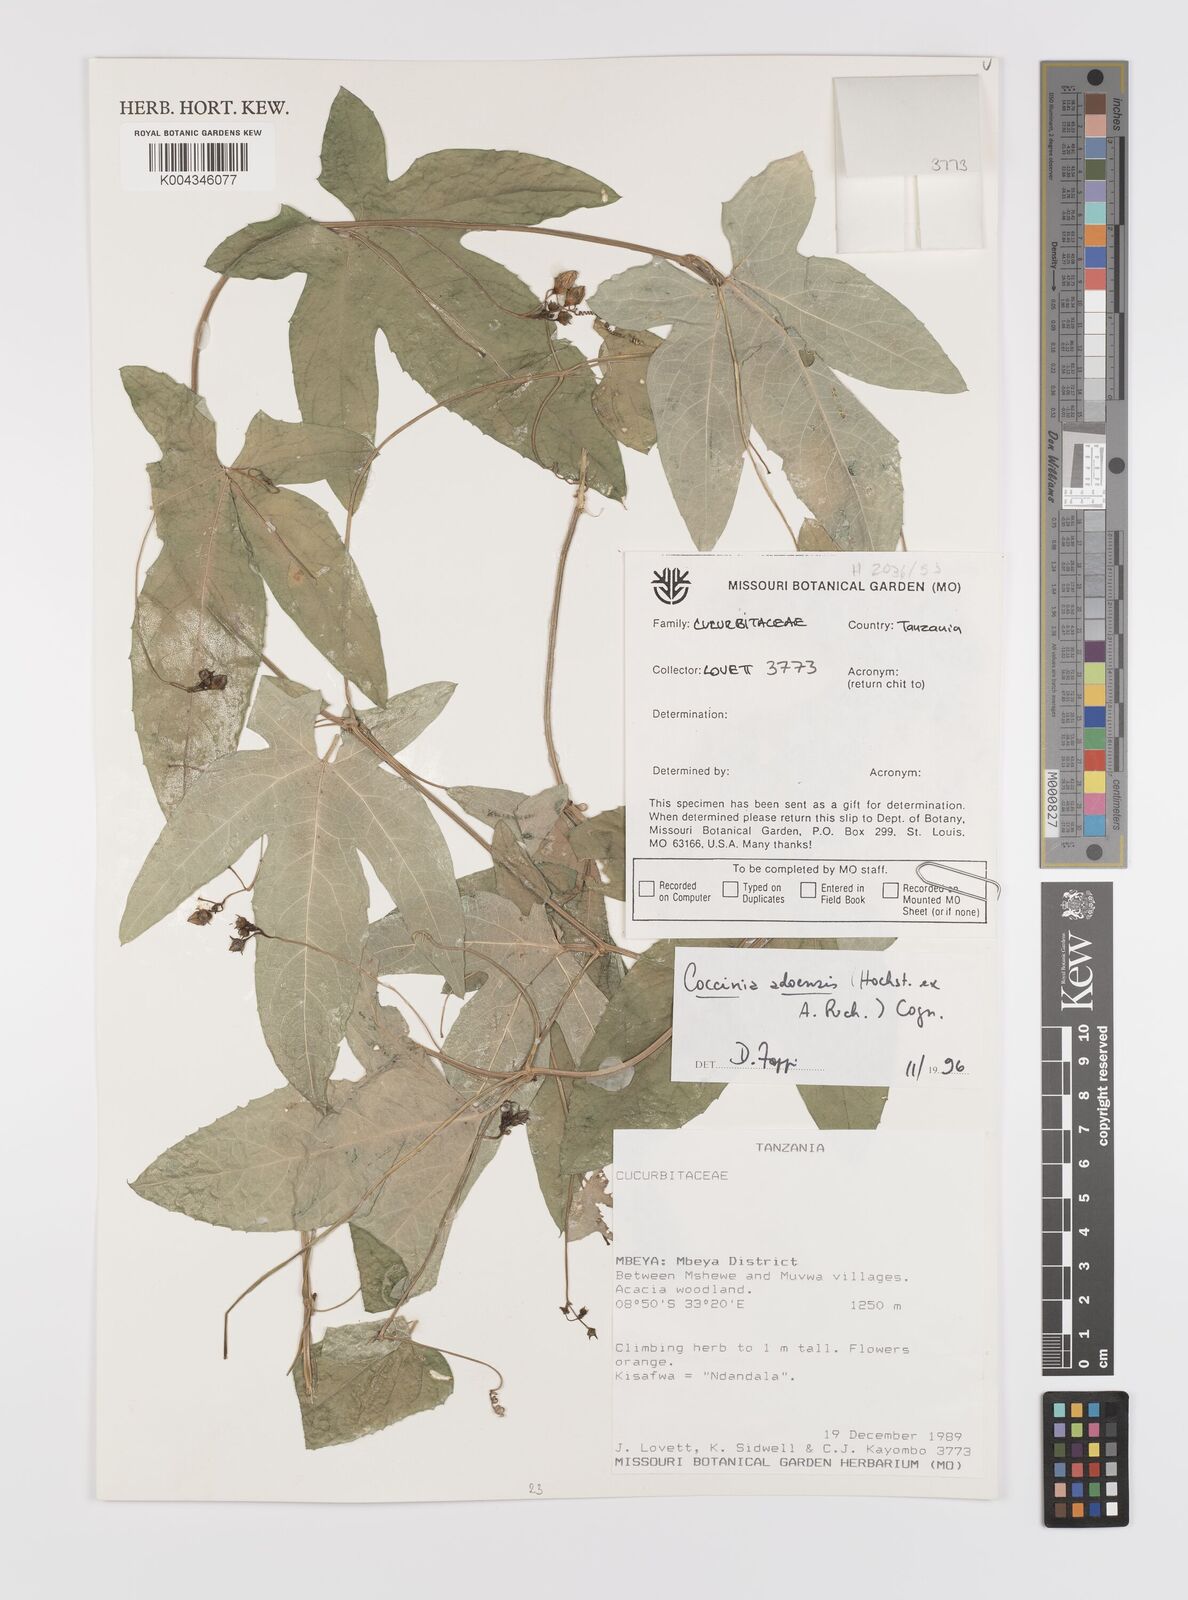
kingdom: Plantae
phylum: Tracheophyta
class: Magnoliopsida
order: Cucurbitales
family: Cucurbitaceae
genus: Coccinia
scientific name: Coccinia adoensis
